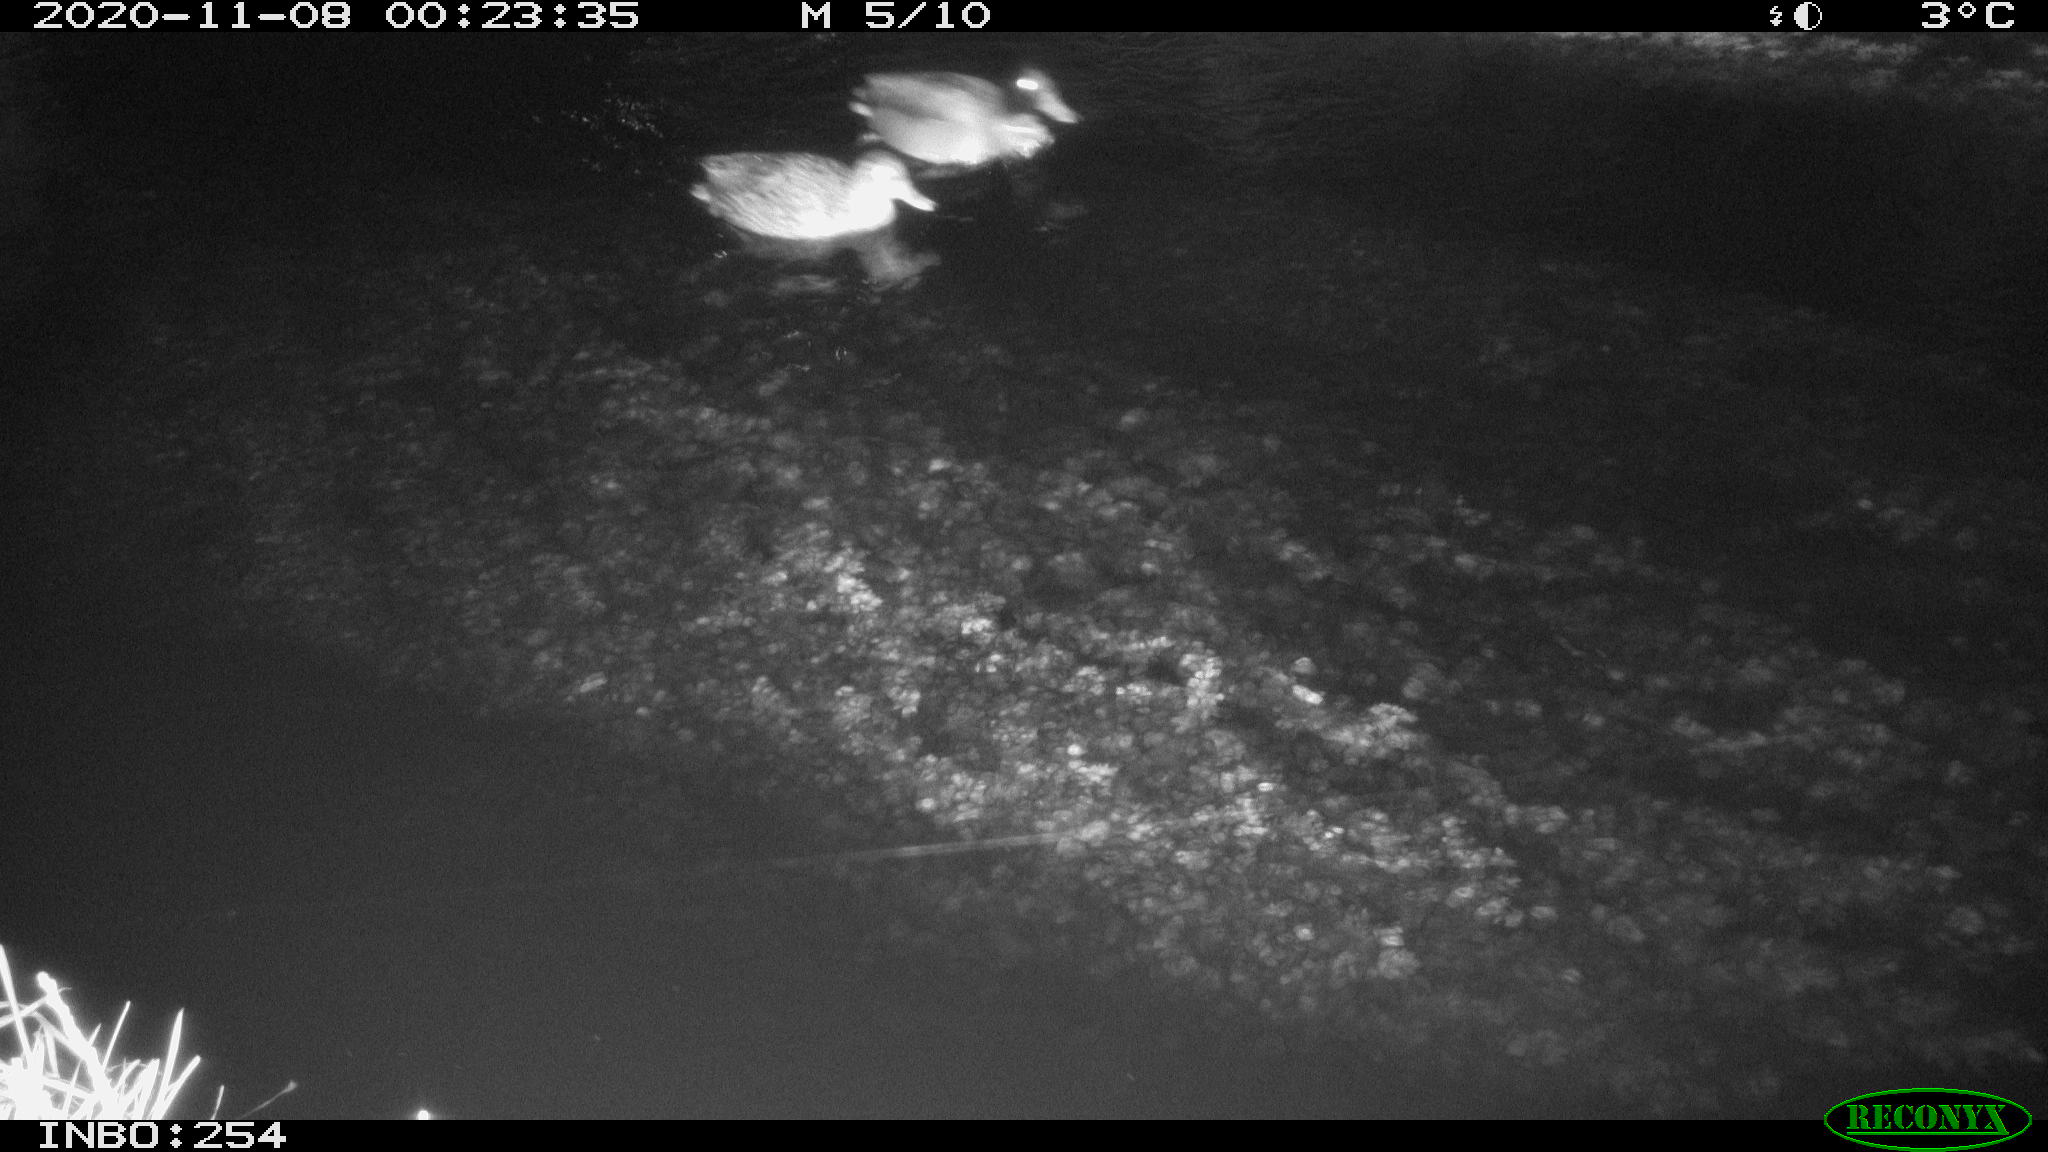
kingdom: Animalia
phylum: Chordata
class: Aves
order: Anseriformes
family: Anatidae
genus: Anas
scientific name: Anas platyrhynchos
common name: Mallard
